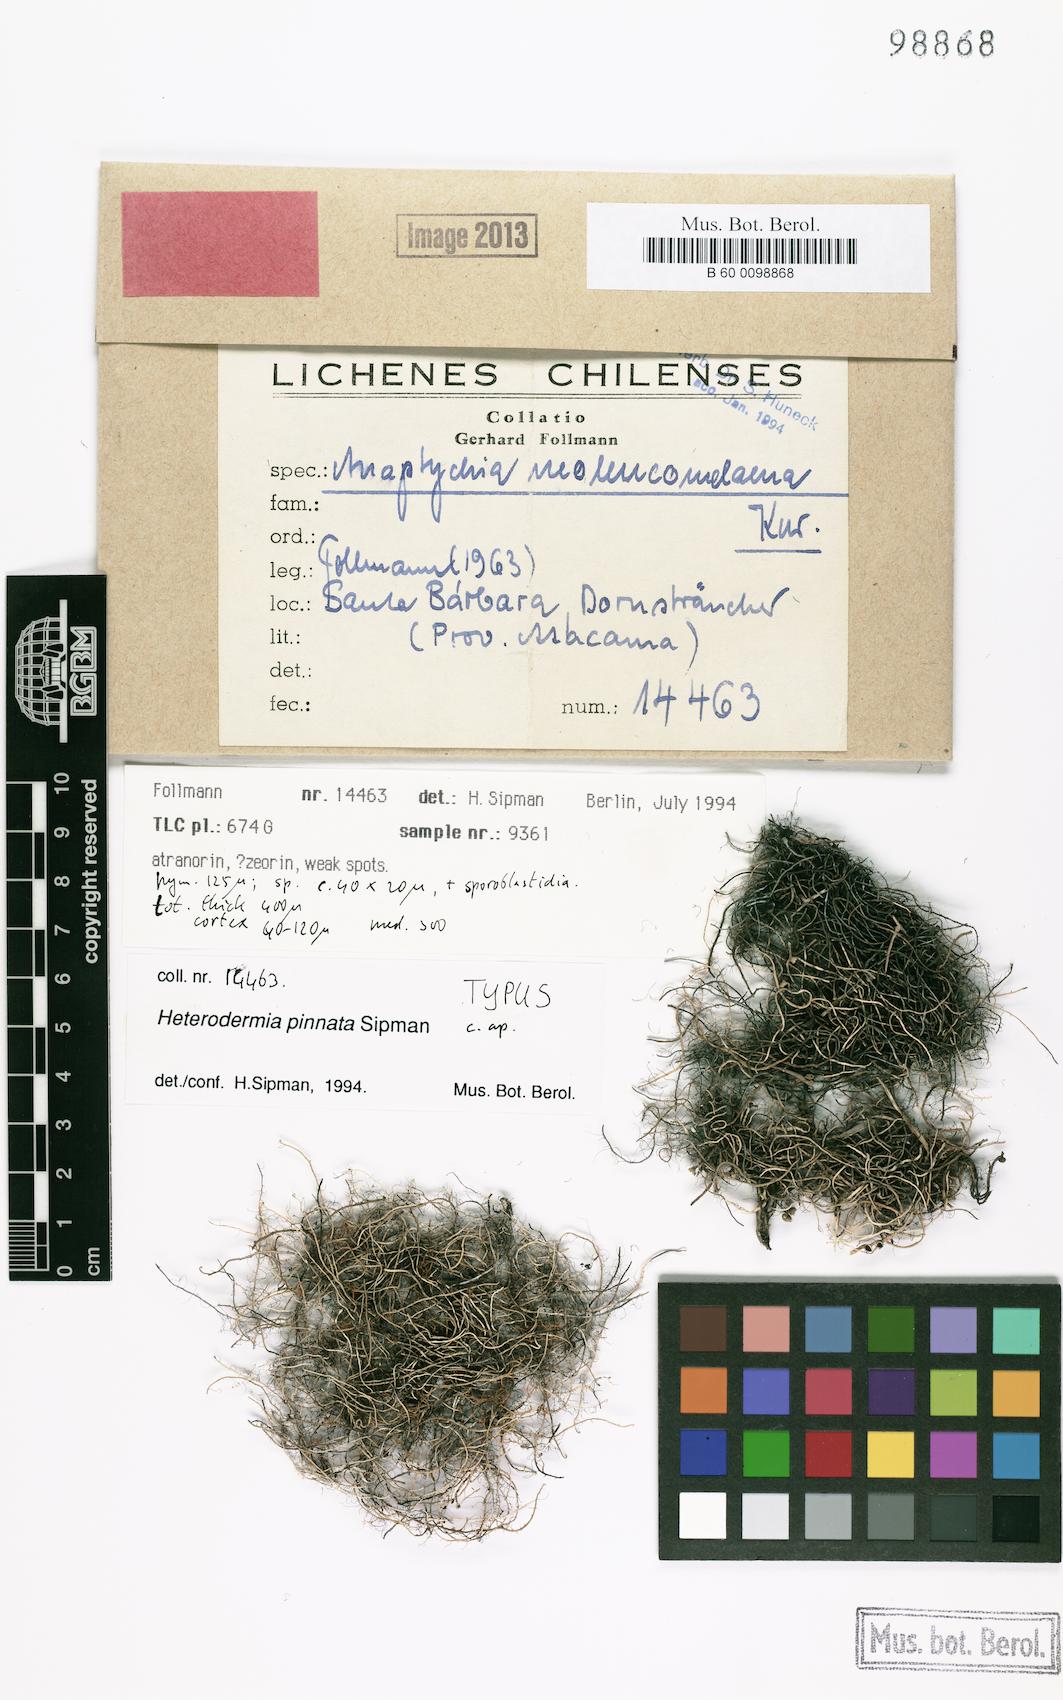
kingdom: Fungi
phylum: Ascomycota
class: Lecanoromycetes
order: Caliciales
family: Physciaceae
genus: Heterodermia
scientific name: Heterodermia
